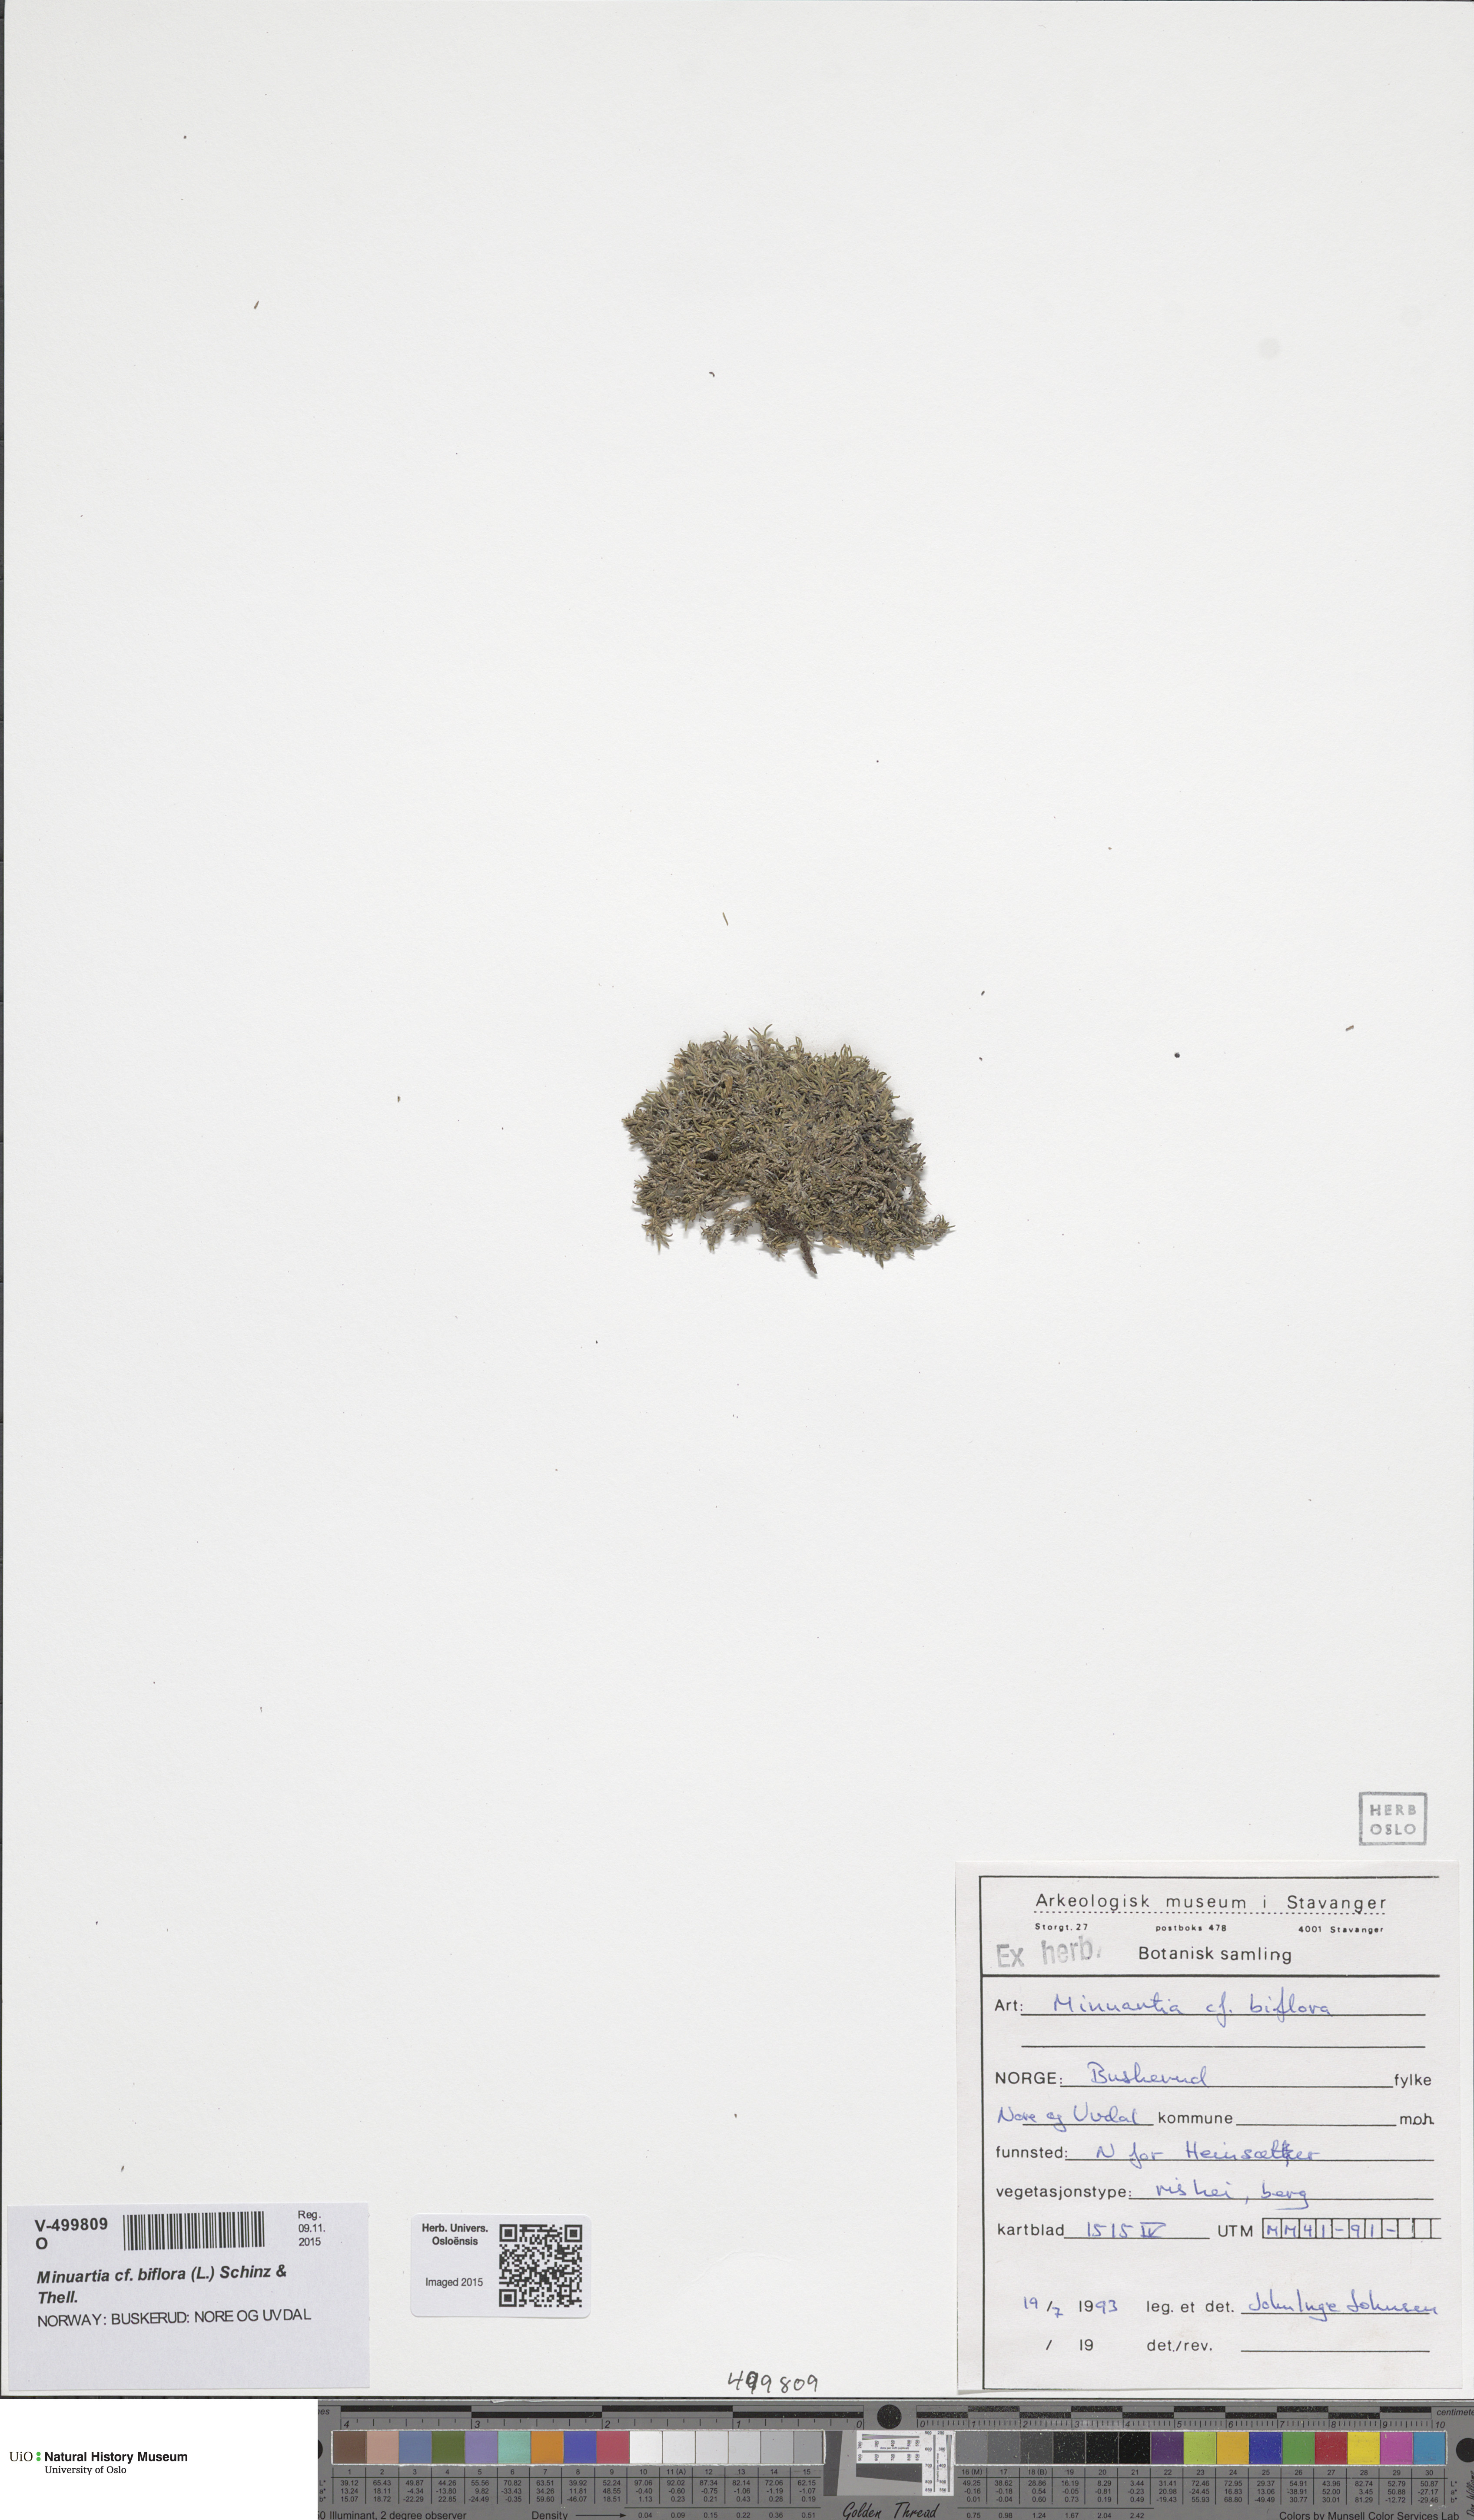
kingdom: Plantae
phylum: Tracheophyta
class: Magnoliopsida
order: Caryophyllales
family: Caryophyllaceae
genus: Cherleria
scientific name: Cherleria biflora
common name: Mountain sandwort
